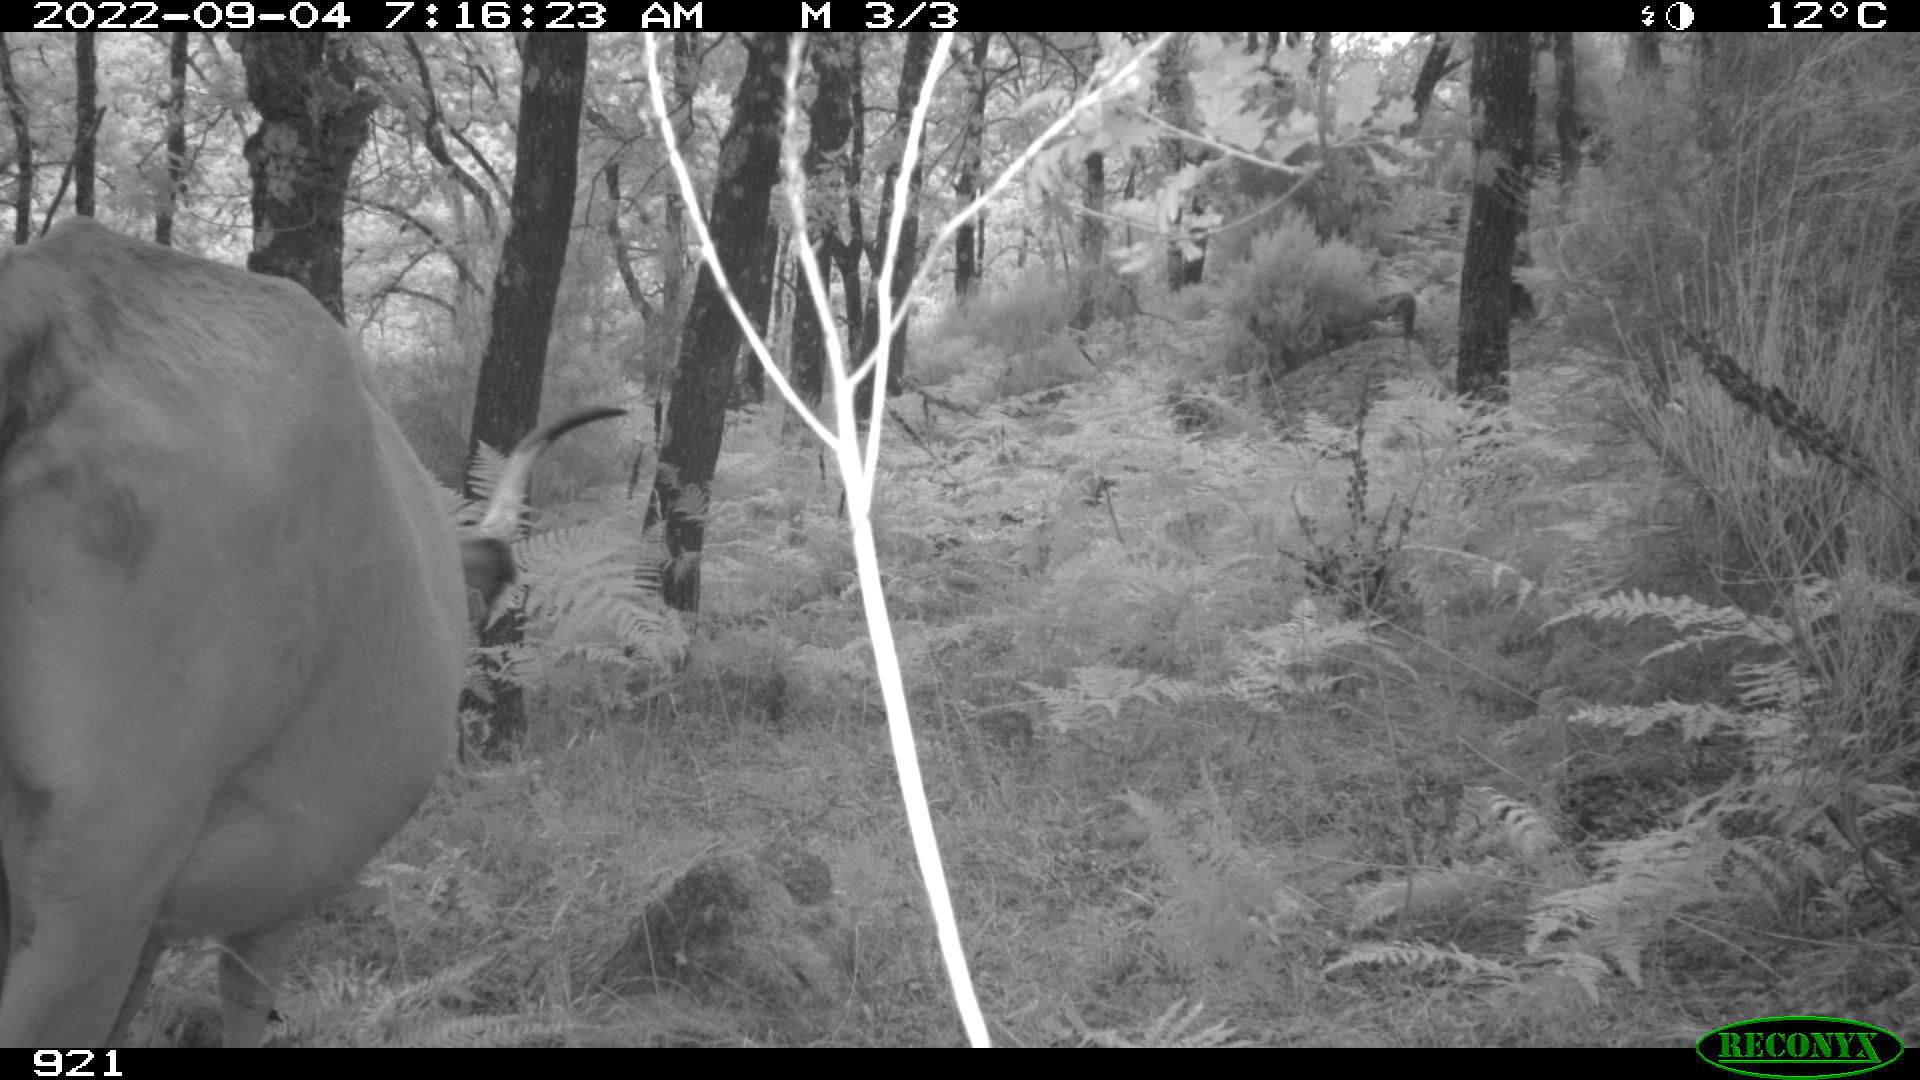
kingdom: Animalia
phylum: Chordata
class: Mammalia
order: Artiodactyla
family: Bovidae
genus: Bos
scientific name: Bos taurus
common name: Domesticated cattle
